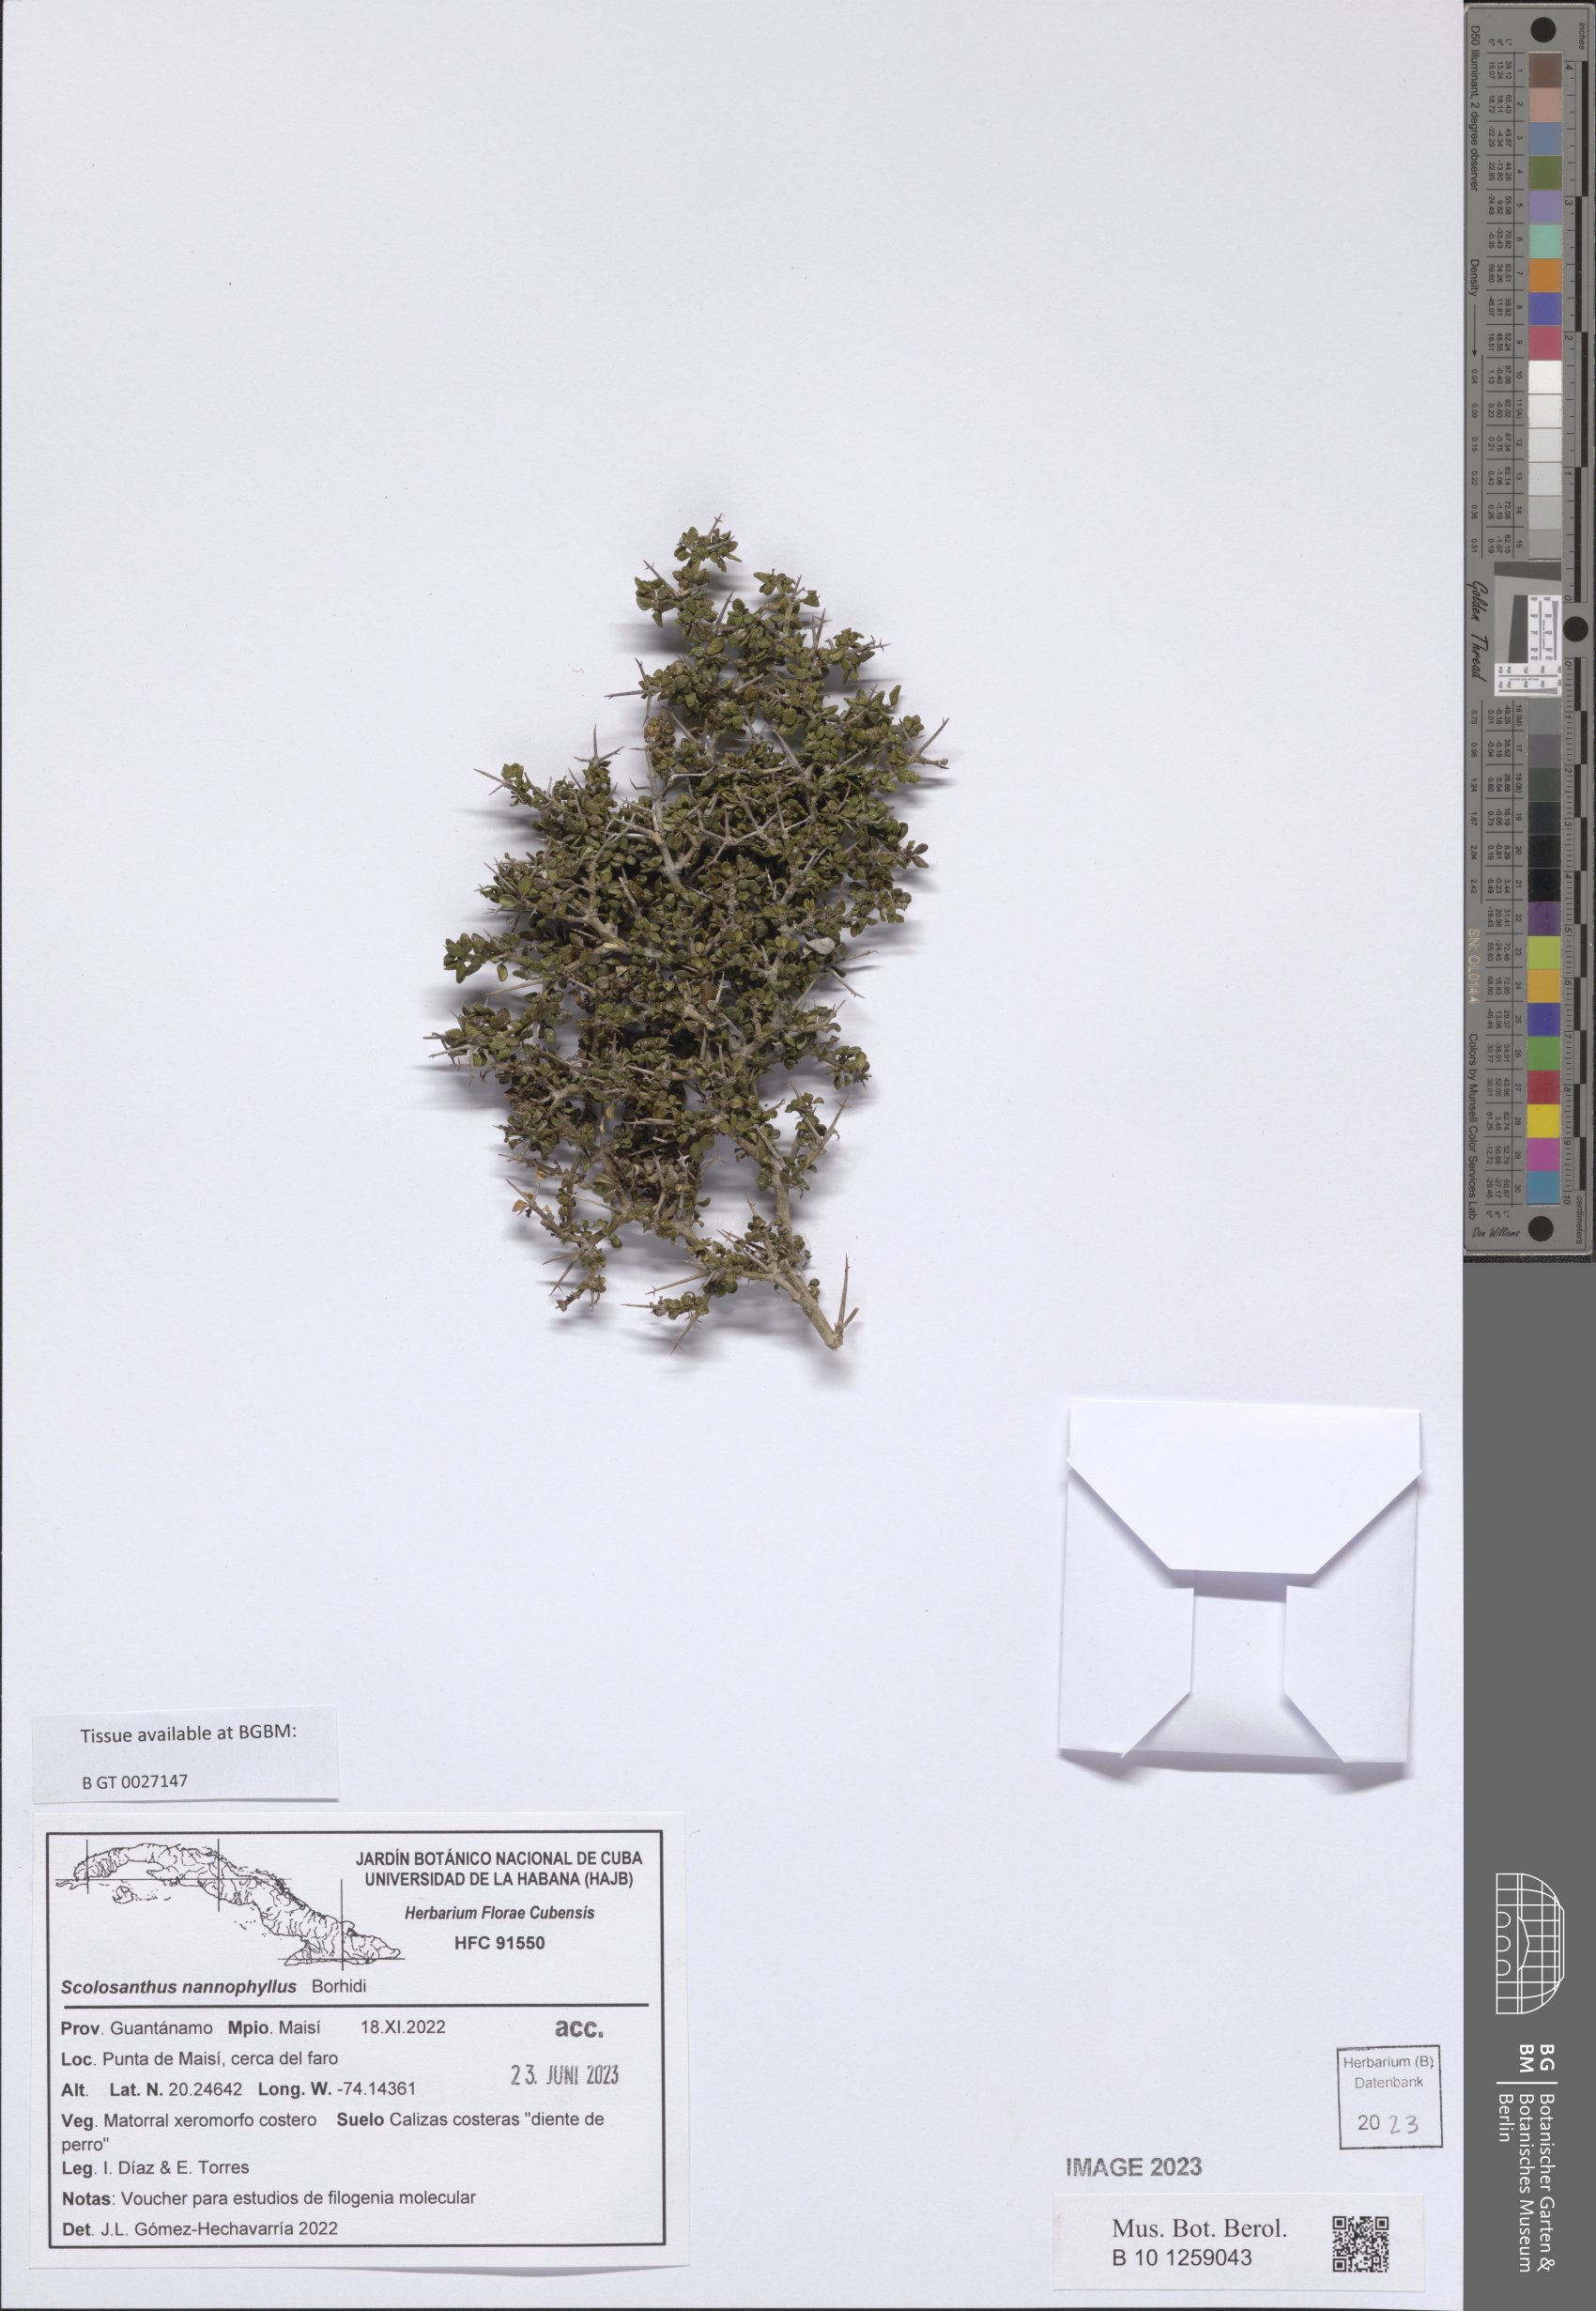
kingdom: Plantae
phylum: Tracheophyta
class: Magnoliopsida
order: Gentianales
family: Rubiaceae
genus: Scolosanthus
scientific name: Scolosanthus nannophyllus
